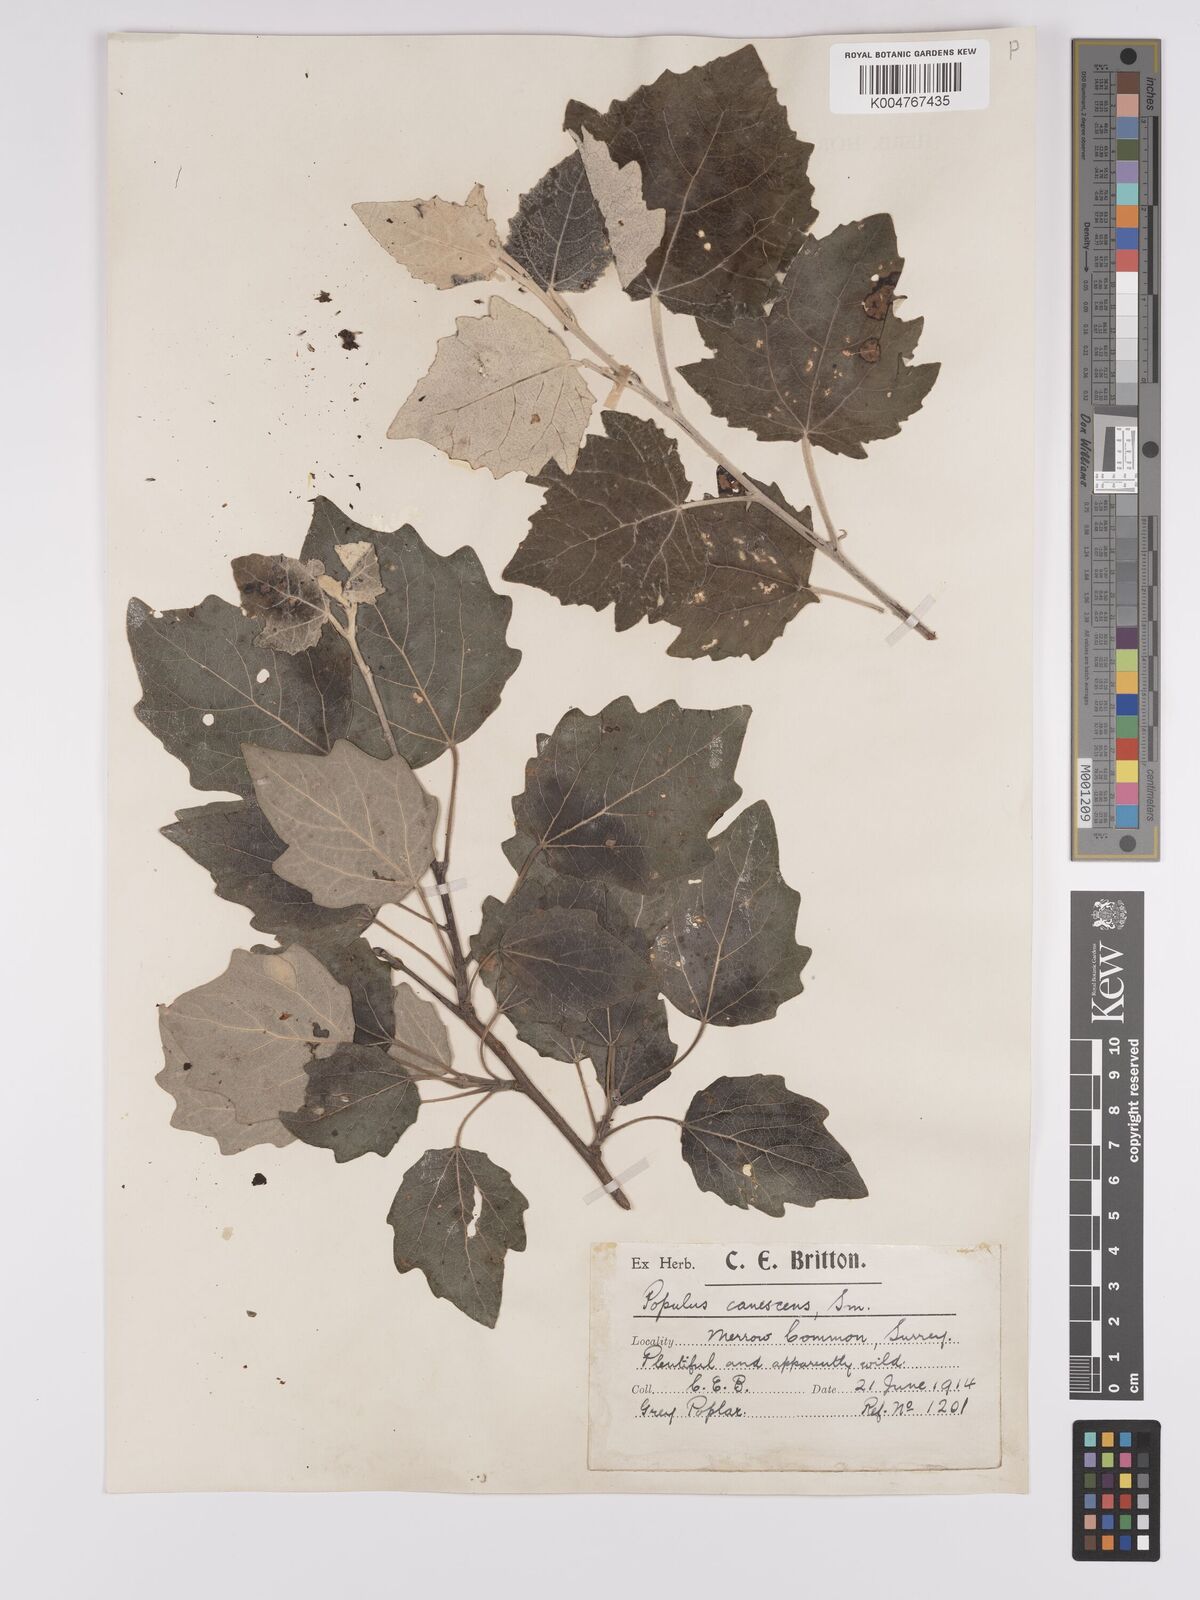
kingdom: Plantae
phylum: Tracheophyta
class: Magnoliopsida
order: Malpighiales
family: Salicaceae
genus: Populus
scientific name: Populus canescens
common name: Gray poplar
